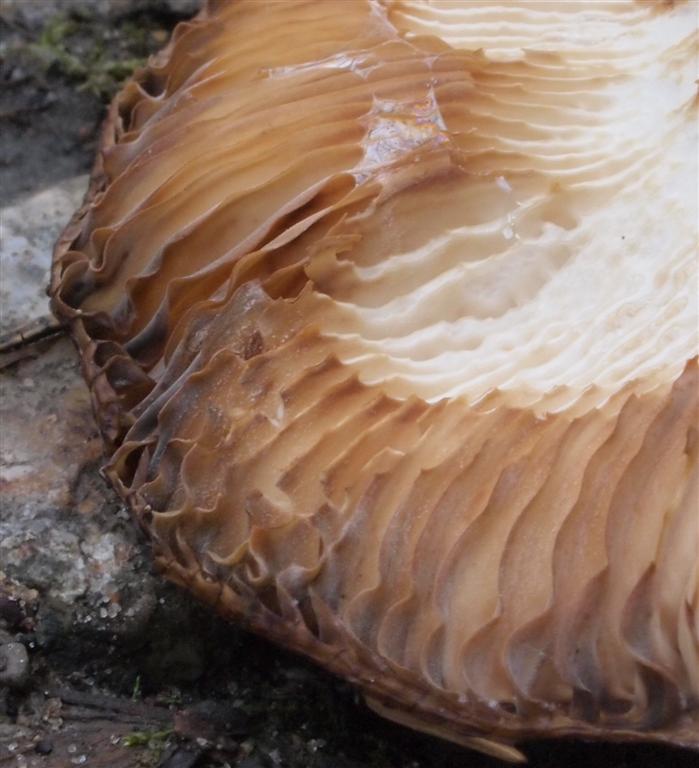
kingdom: Fungi
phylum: Basidiomycota
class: Agaricomycetes
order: Russulales
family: Russulaceae
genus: Russula
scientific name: Russula grata
